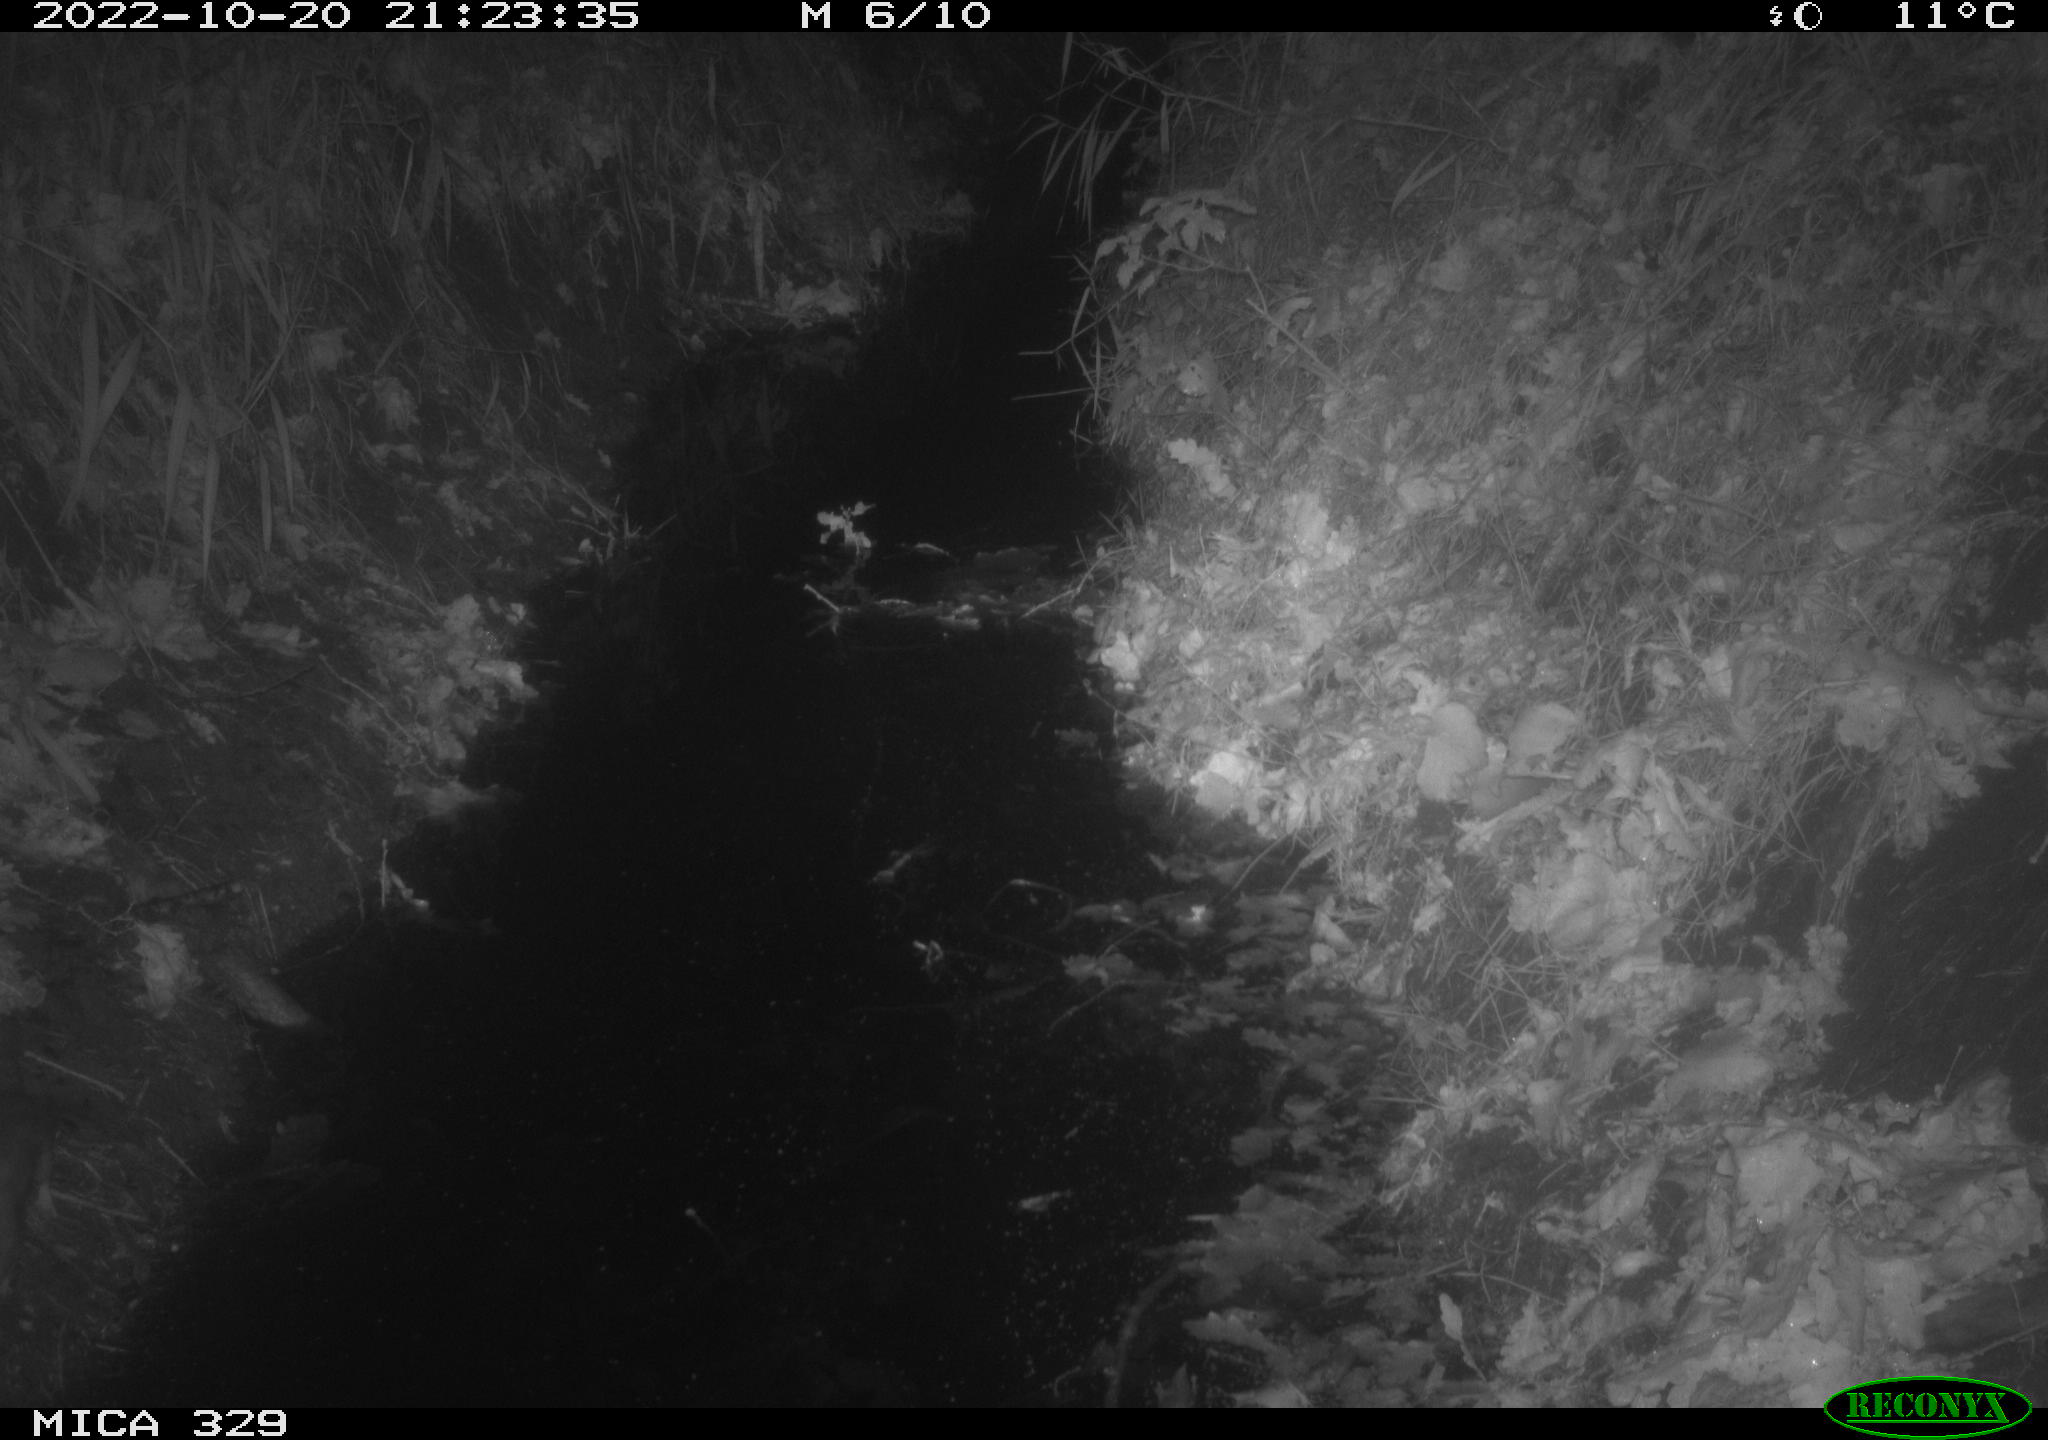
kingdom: Animalia
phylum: Chordata
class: Mammalia
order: Rodentia
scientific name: Rodentia
